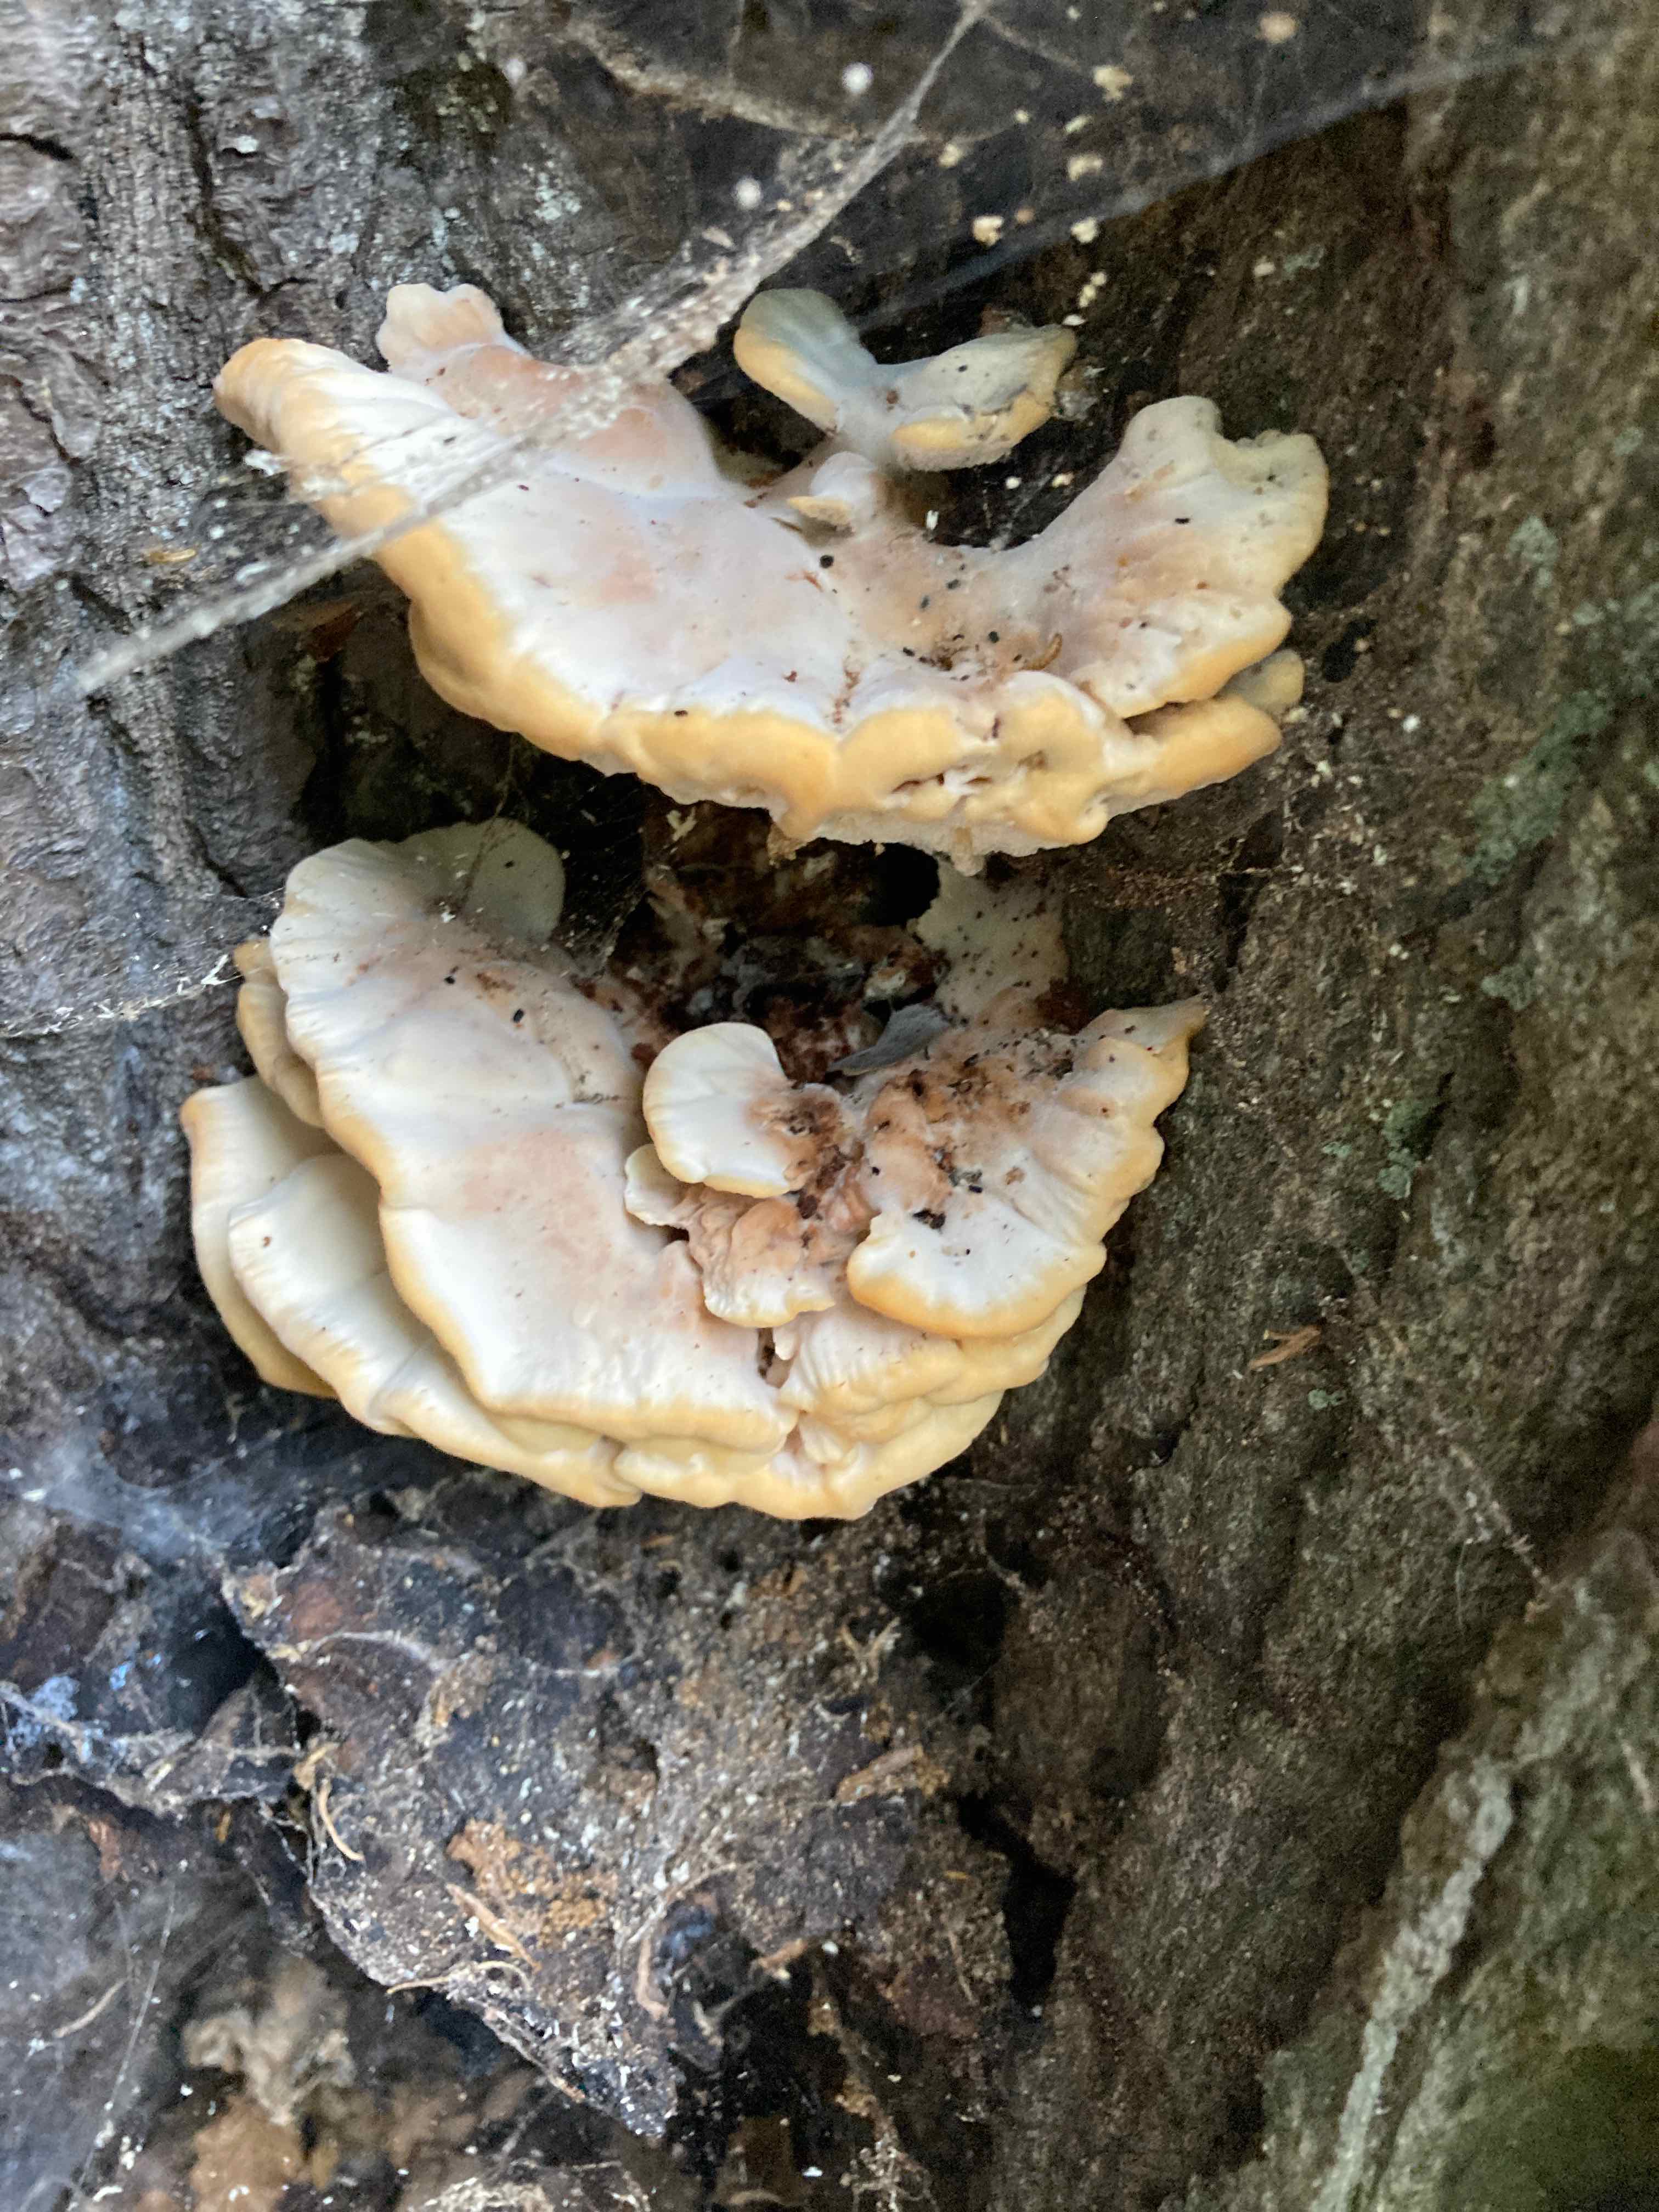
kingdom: Fungi
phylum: Basidiomycota
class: Agaricomycetes
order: Polyporales
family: Laetiporaceae
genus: Laetiporus
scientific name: Laetiporus
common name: svovlporesvamp
